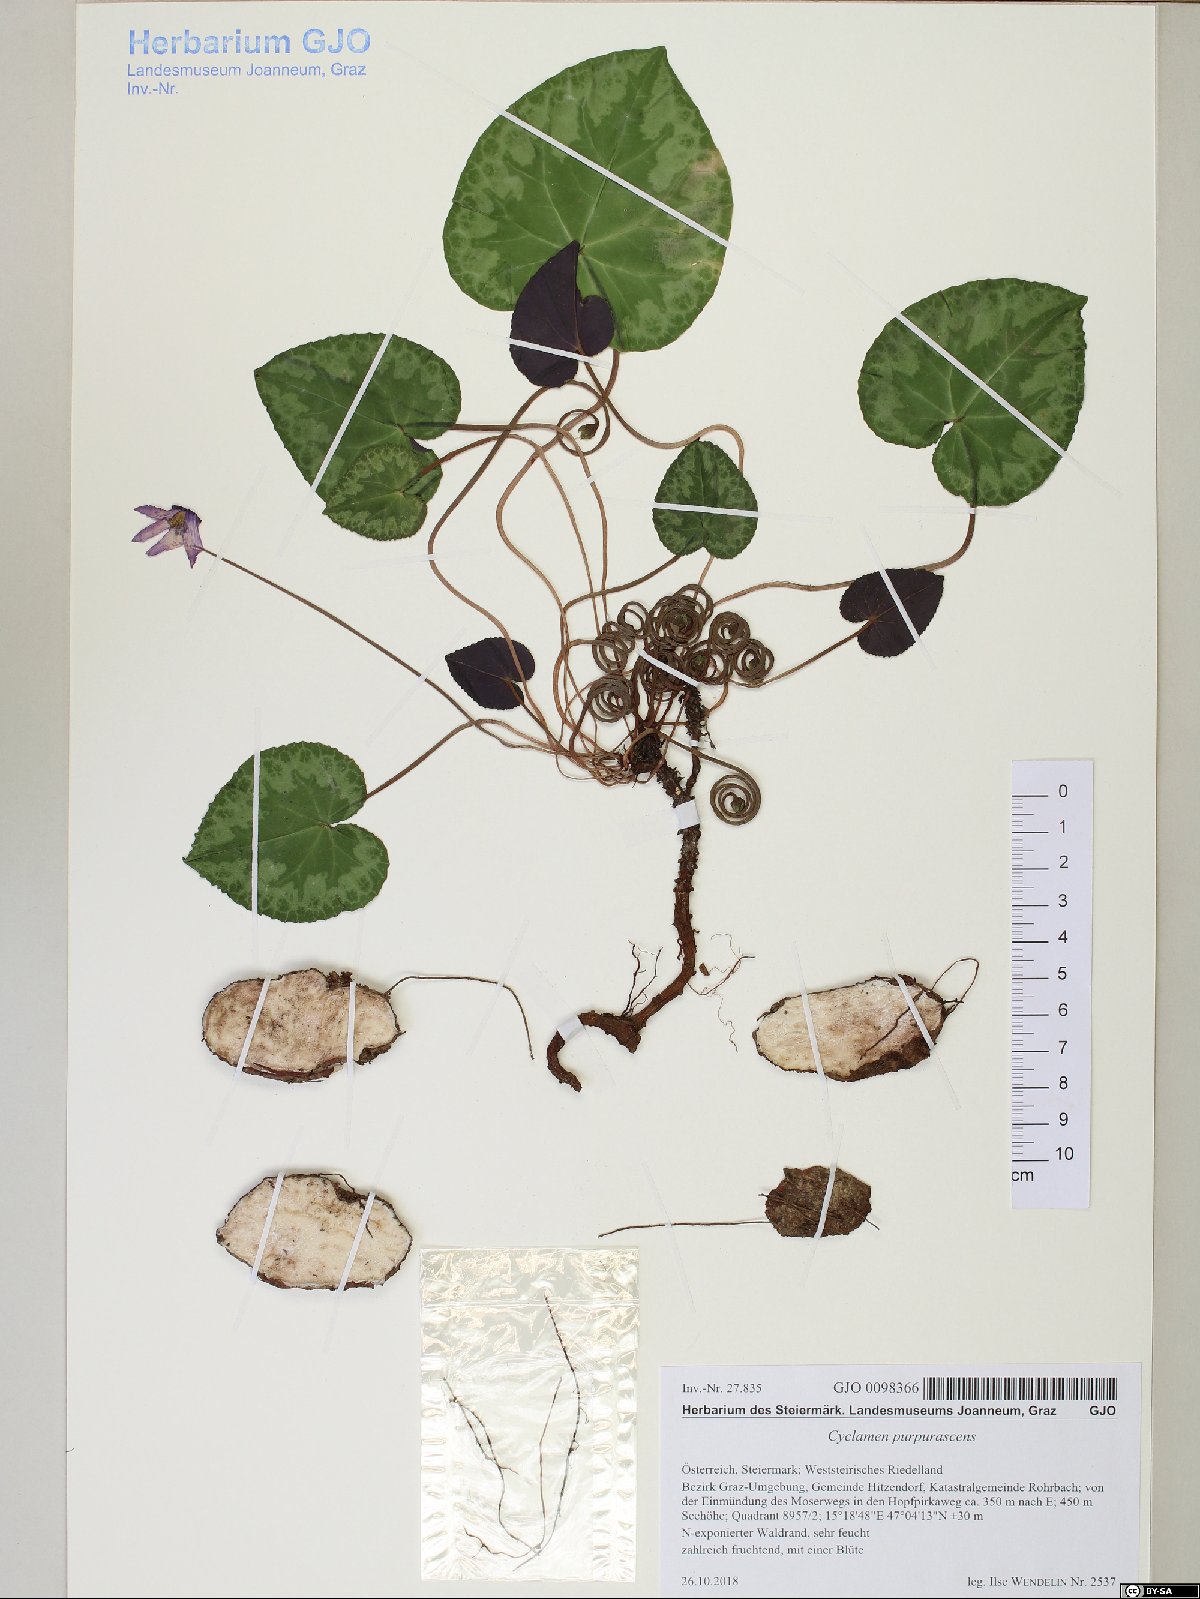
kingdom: Plantae
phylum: Tracheophyta
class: Magnoliopsida
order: Ericales
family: Primulaceae
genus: Cyclamen
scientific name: Cyclamen purpurascens
